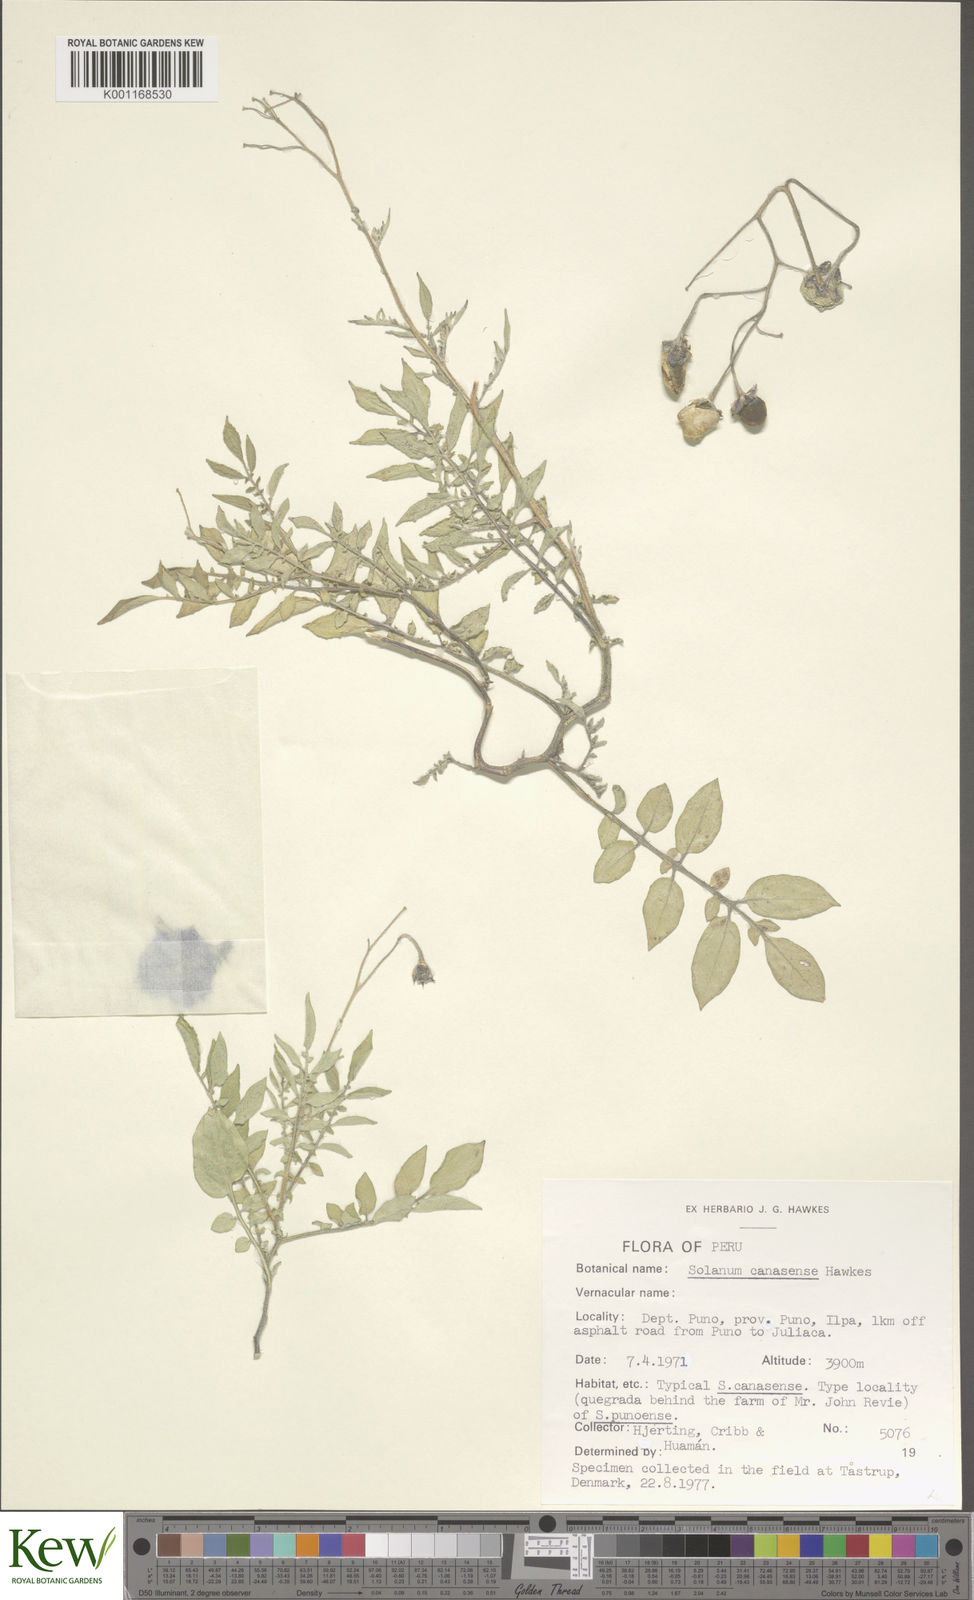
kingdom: Plantae
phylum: Tracheophyta
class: Magnoliopsida
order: Solanales
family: Solanaceae
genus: Solanum
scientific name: Solanum candolleanum
